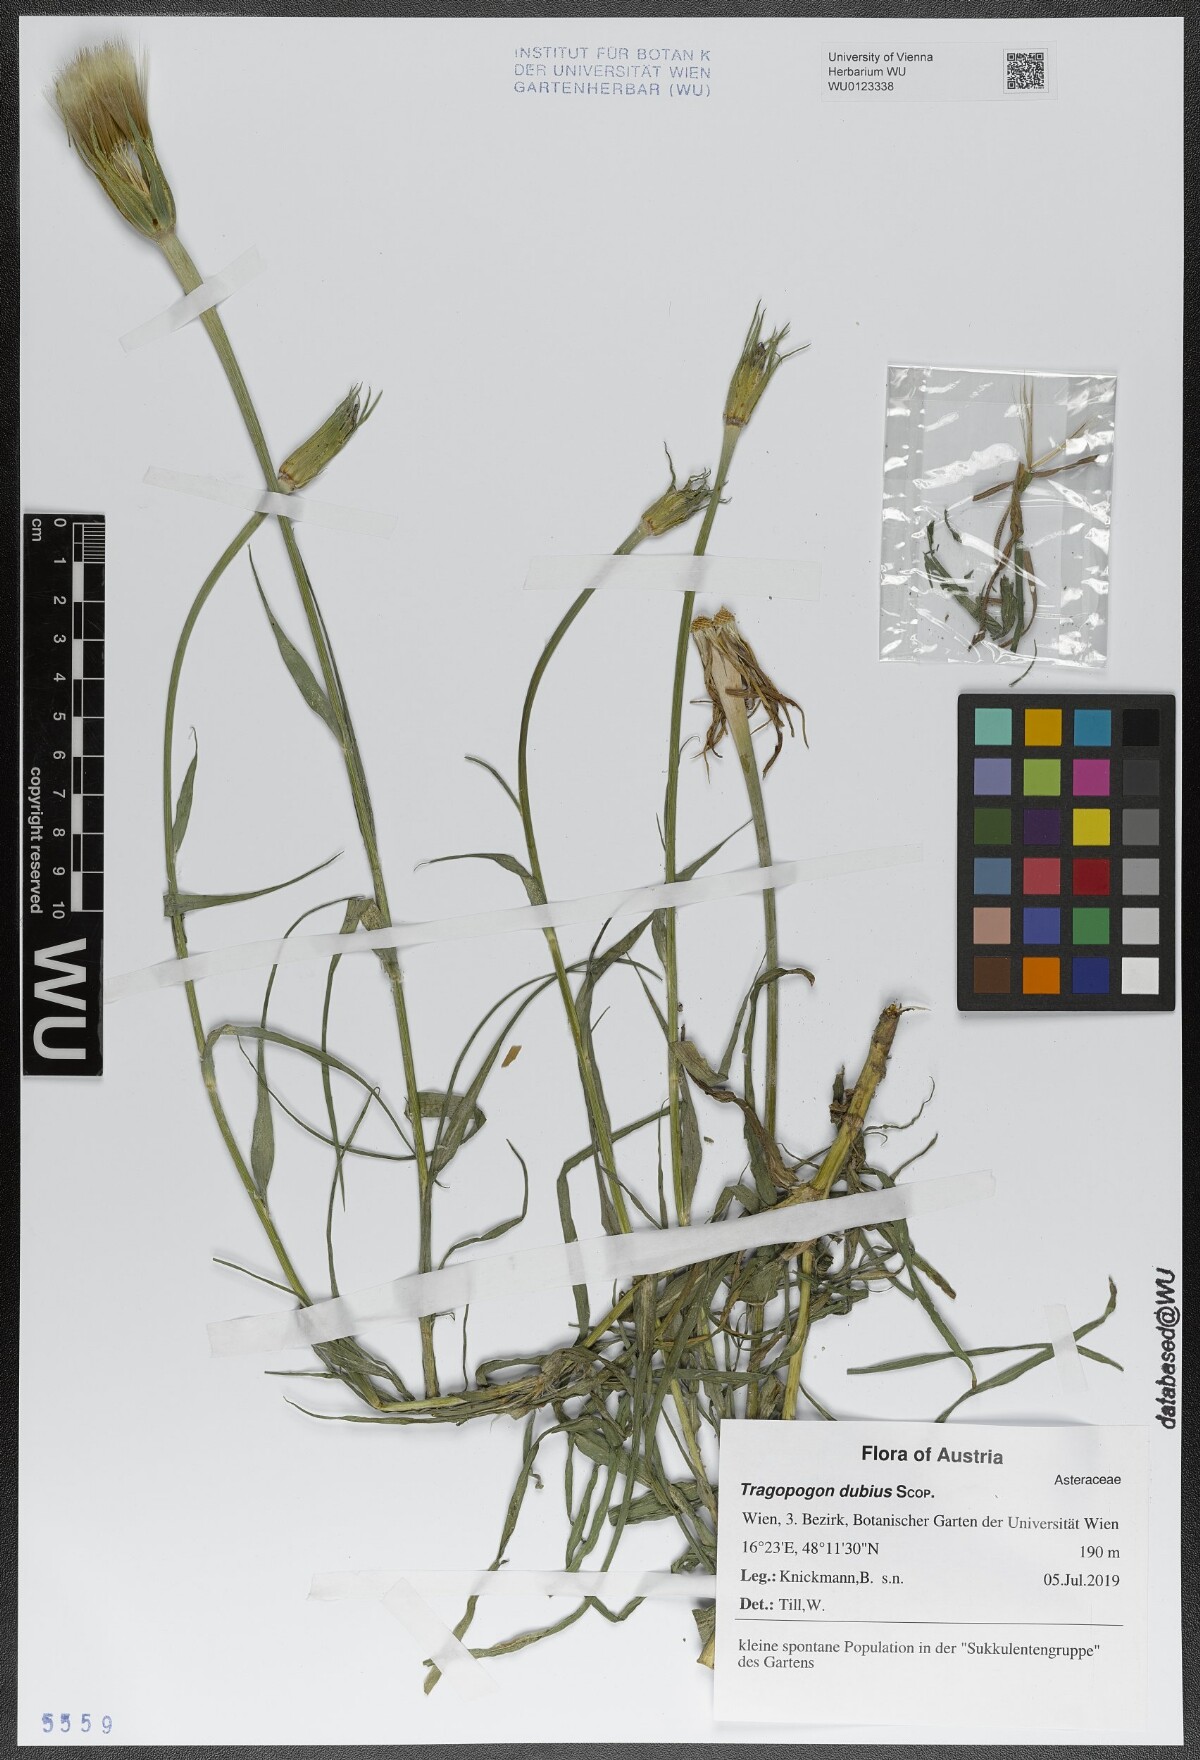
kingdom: Plantae
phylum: Tracheophyta
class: Magnoliopsida
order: Asterales
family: Asteraceae
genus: Tragopogon
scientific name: Tragopogon dubius
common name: Yellow salsify
